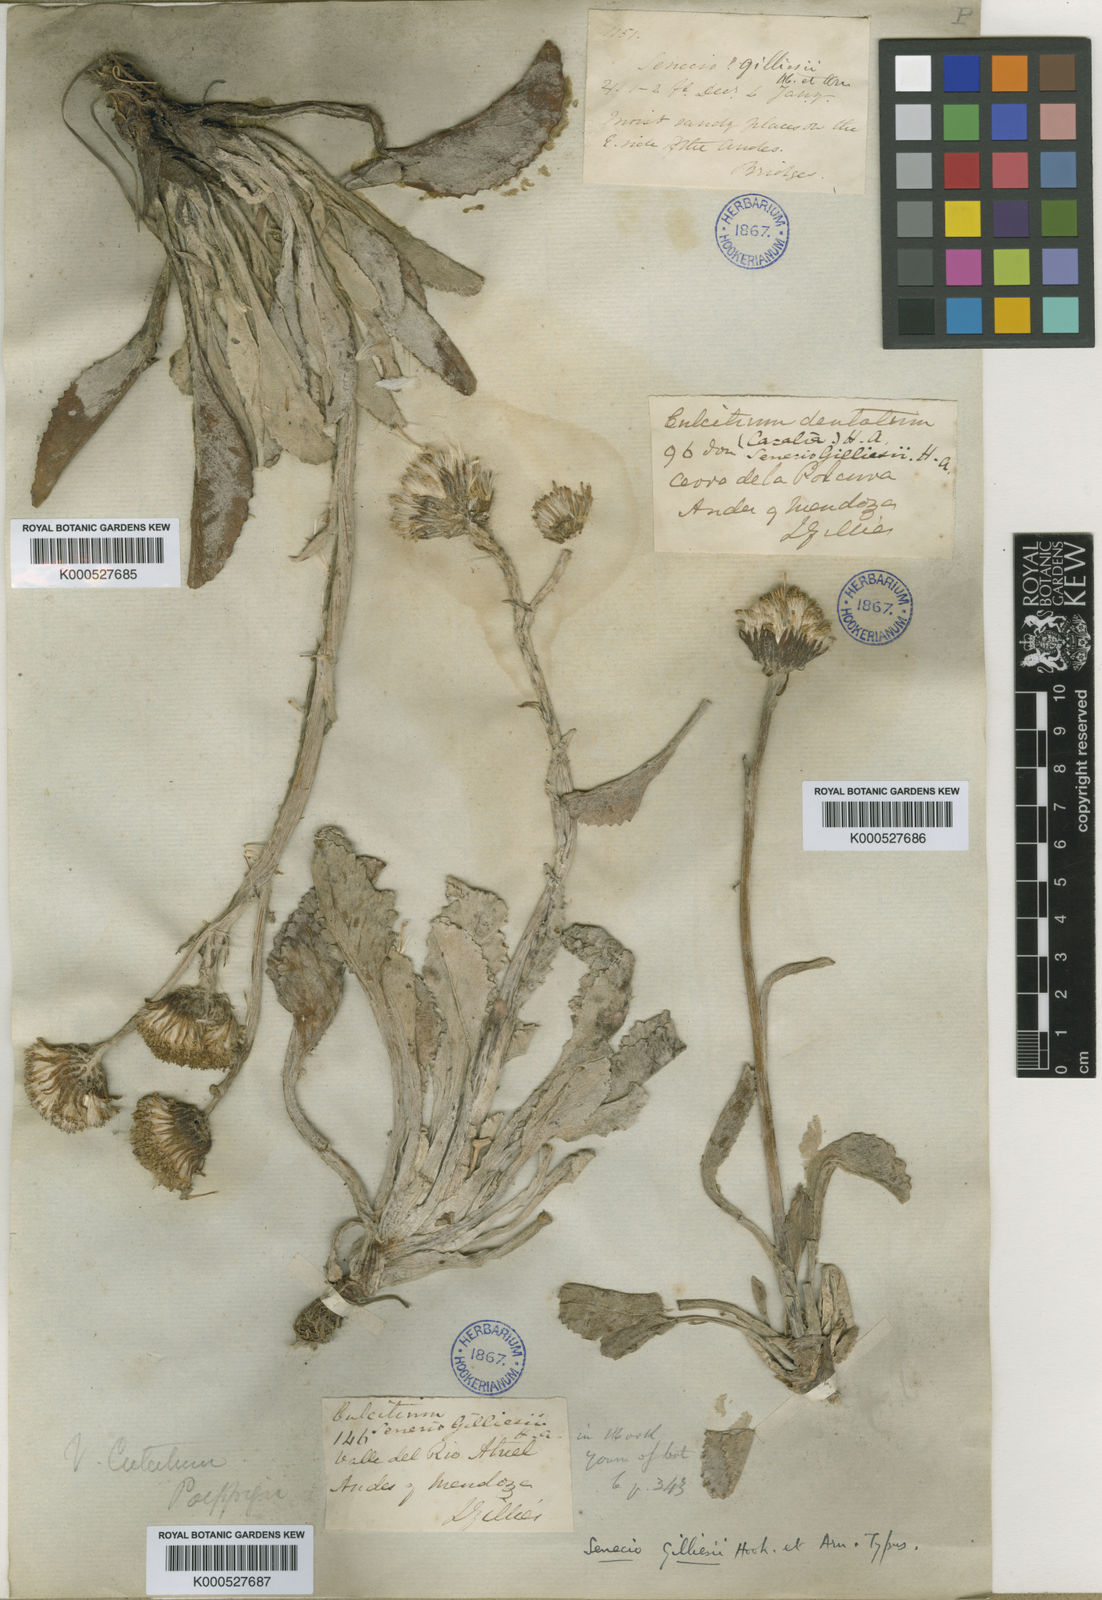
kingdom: Plantae
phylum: Tracheophyta
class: Magnoliopsida
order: Asterales
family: Asteraceae
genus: Senecio
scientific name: Senecio gilliesii
